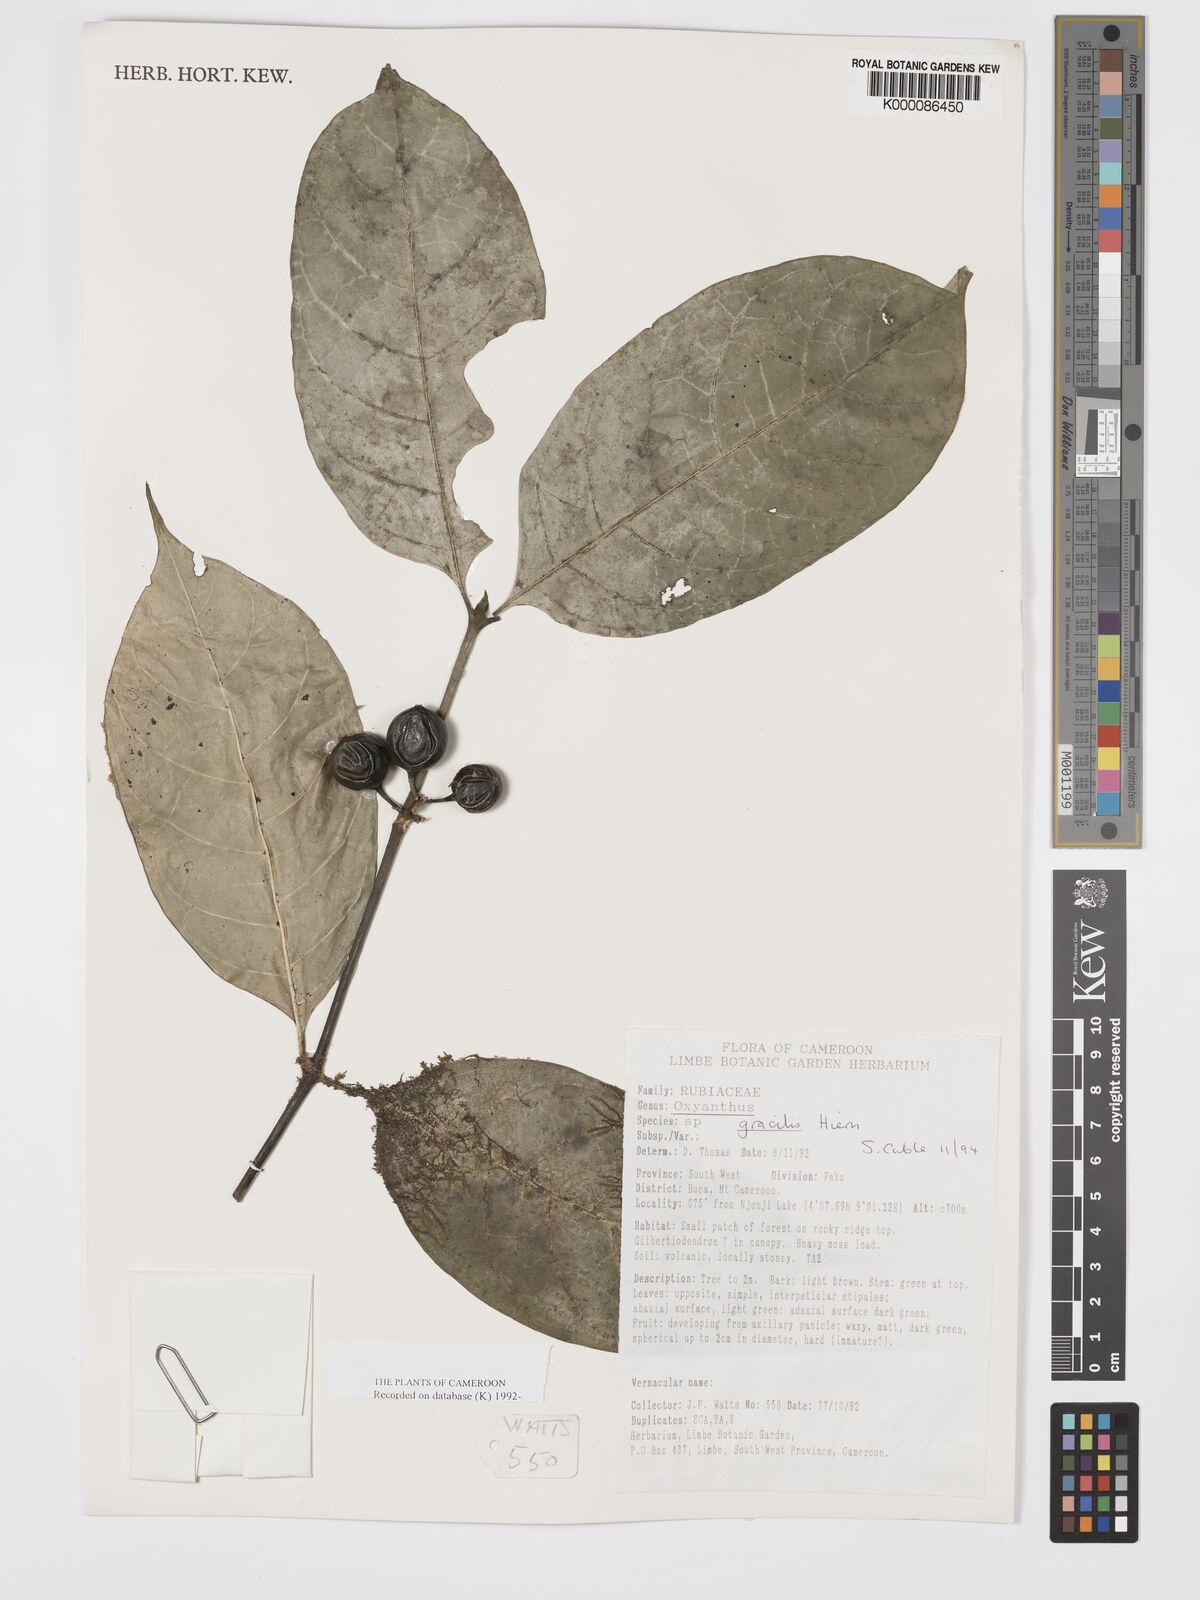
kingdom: Plantae
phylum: Tracheophyta
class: Magnoliopsida
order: Gentianales
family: Rubiaceae
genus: Oxyanthus
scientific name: Oxyanthus gracilis
